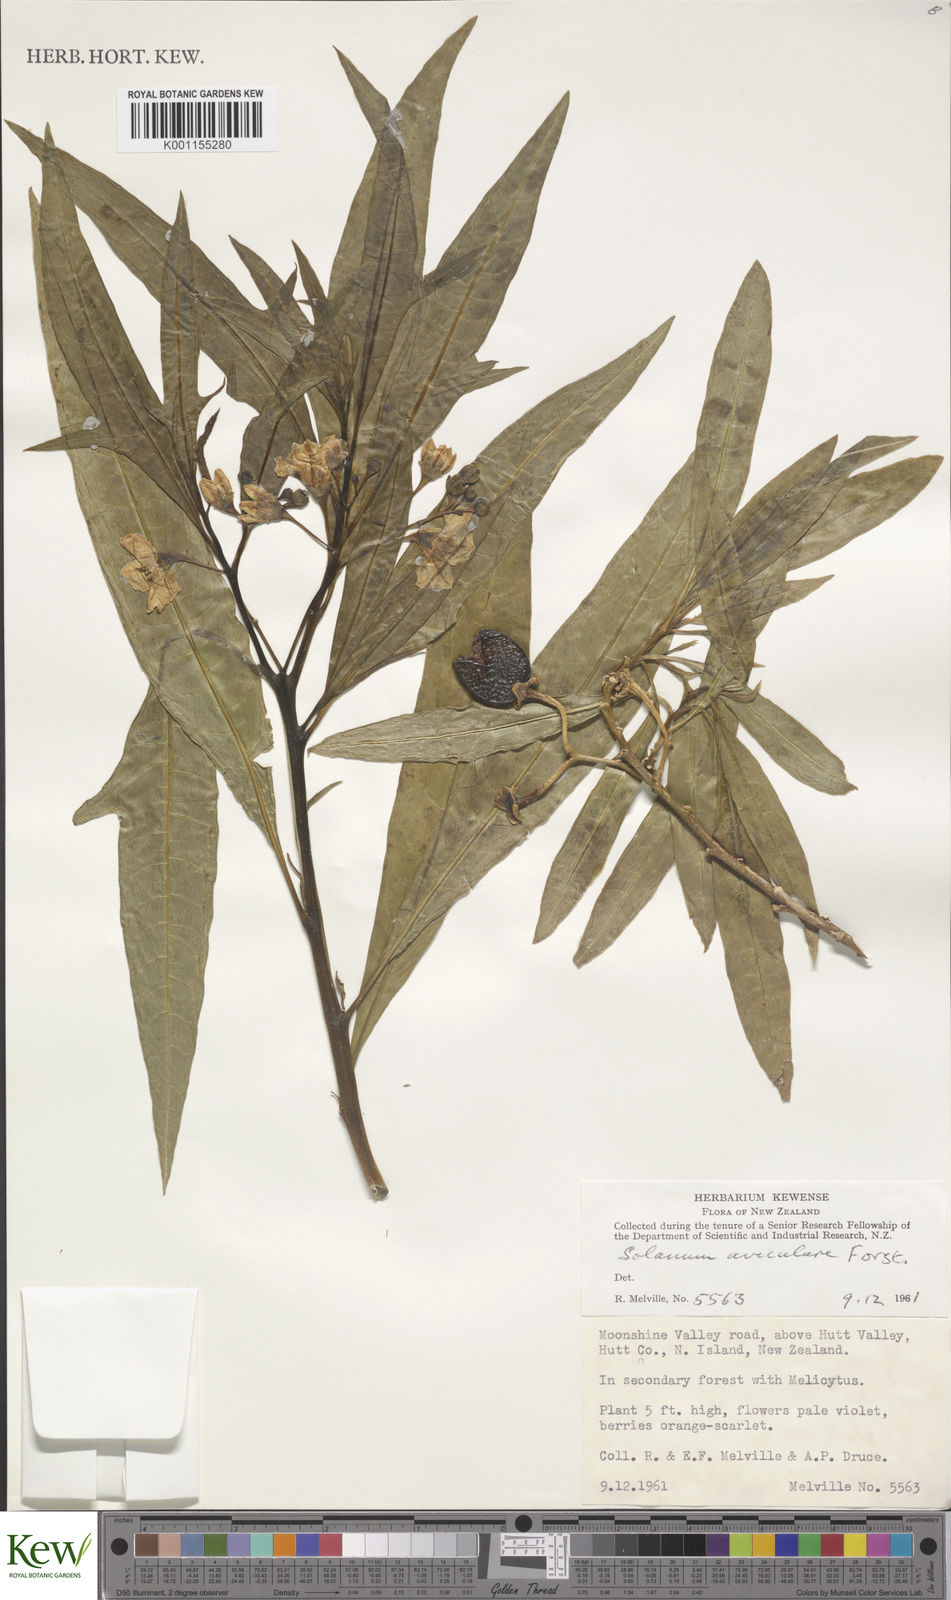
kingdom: Plantae
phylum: Tracheophyta
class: Magnoliopsida
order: Solanales
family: Solanaceae
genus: Solanum
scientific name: Solanum aviculare
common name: New zealand nightshade
